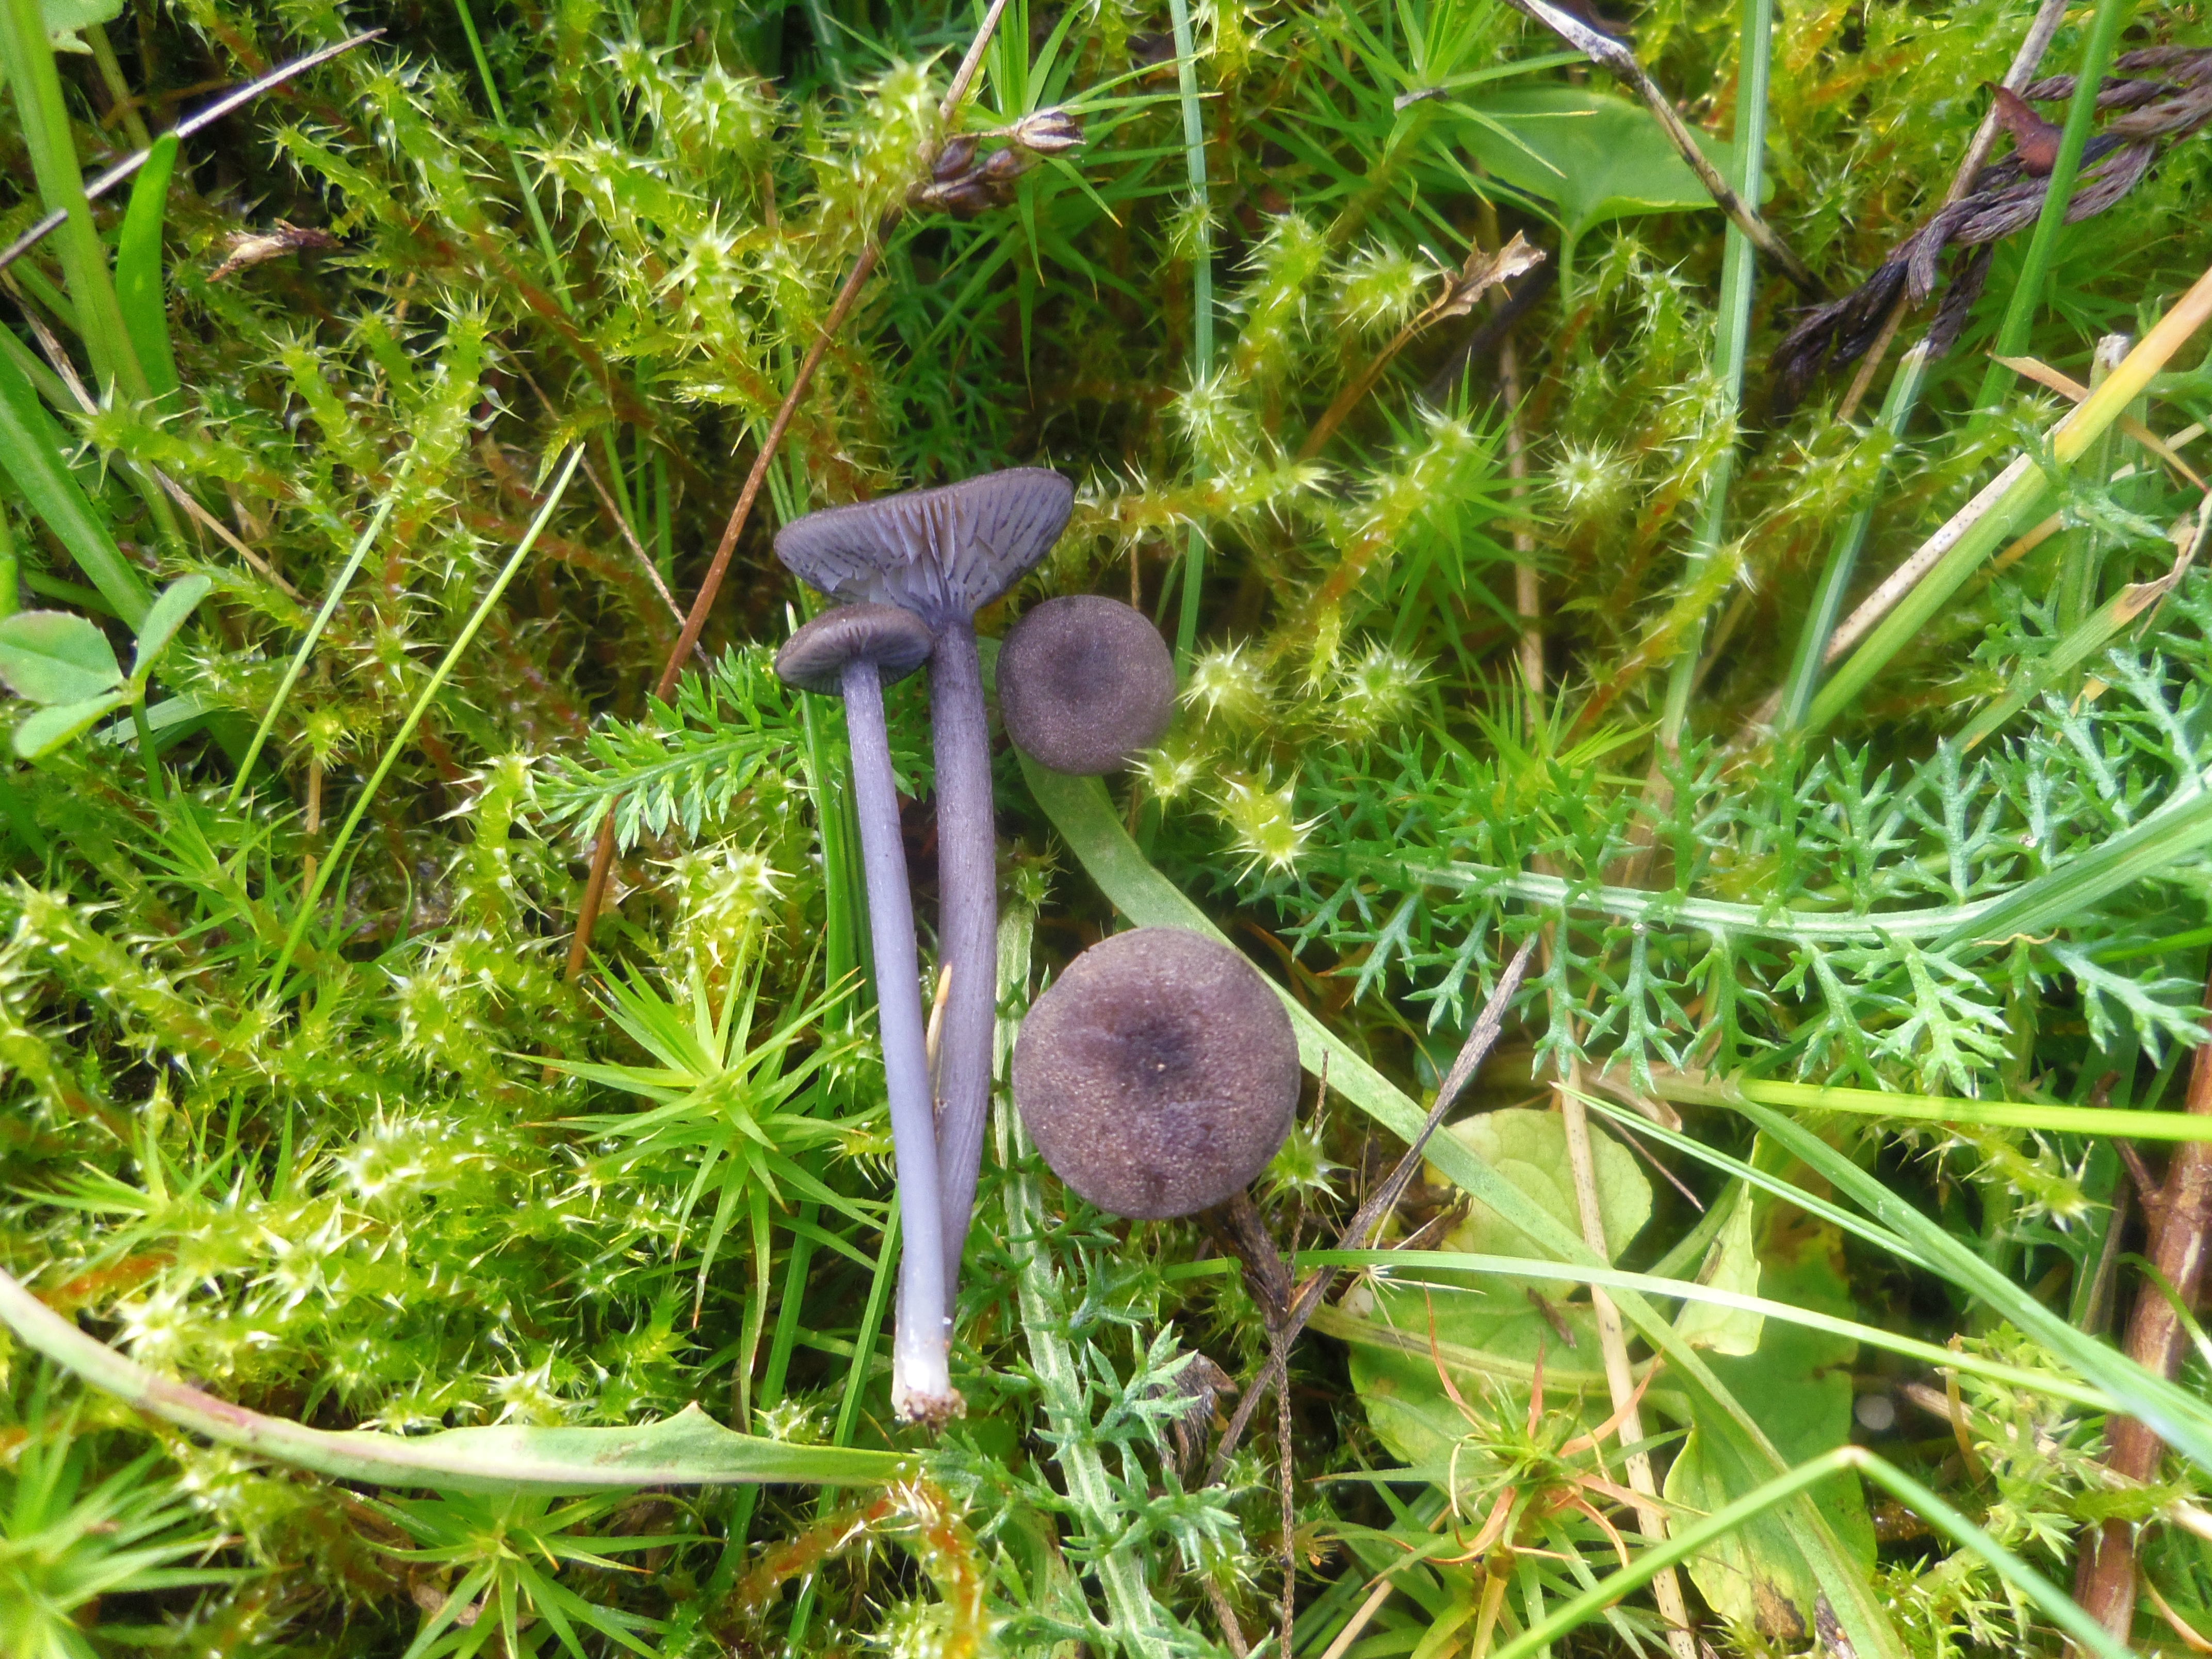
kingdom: Fungi
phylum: Basidiomycota
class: Agaricomycetes
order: Agaricales
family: Entolomataceae
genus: Entoloma
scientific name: Entoloma
